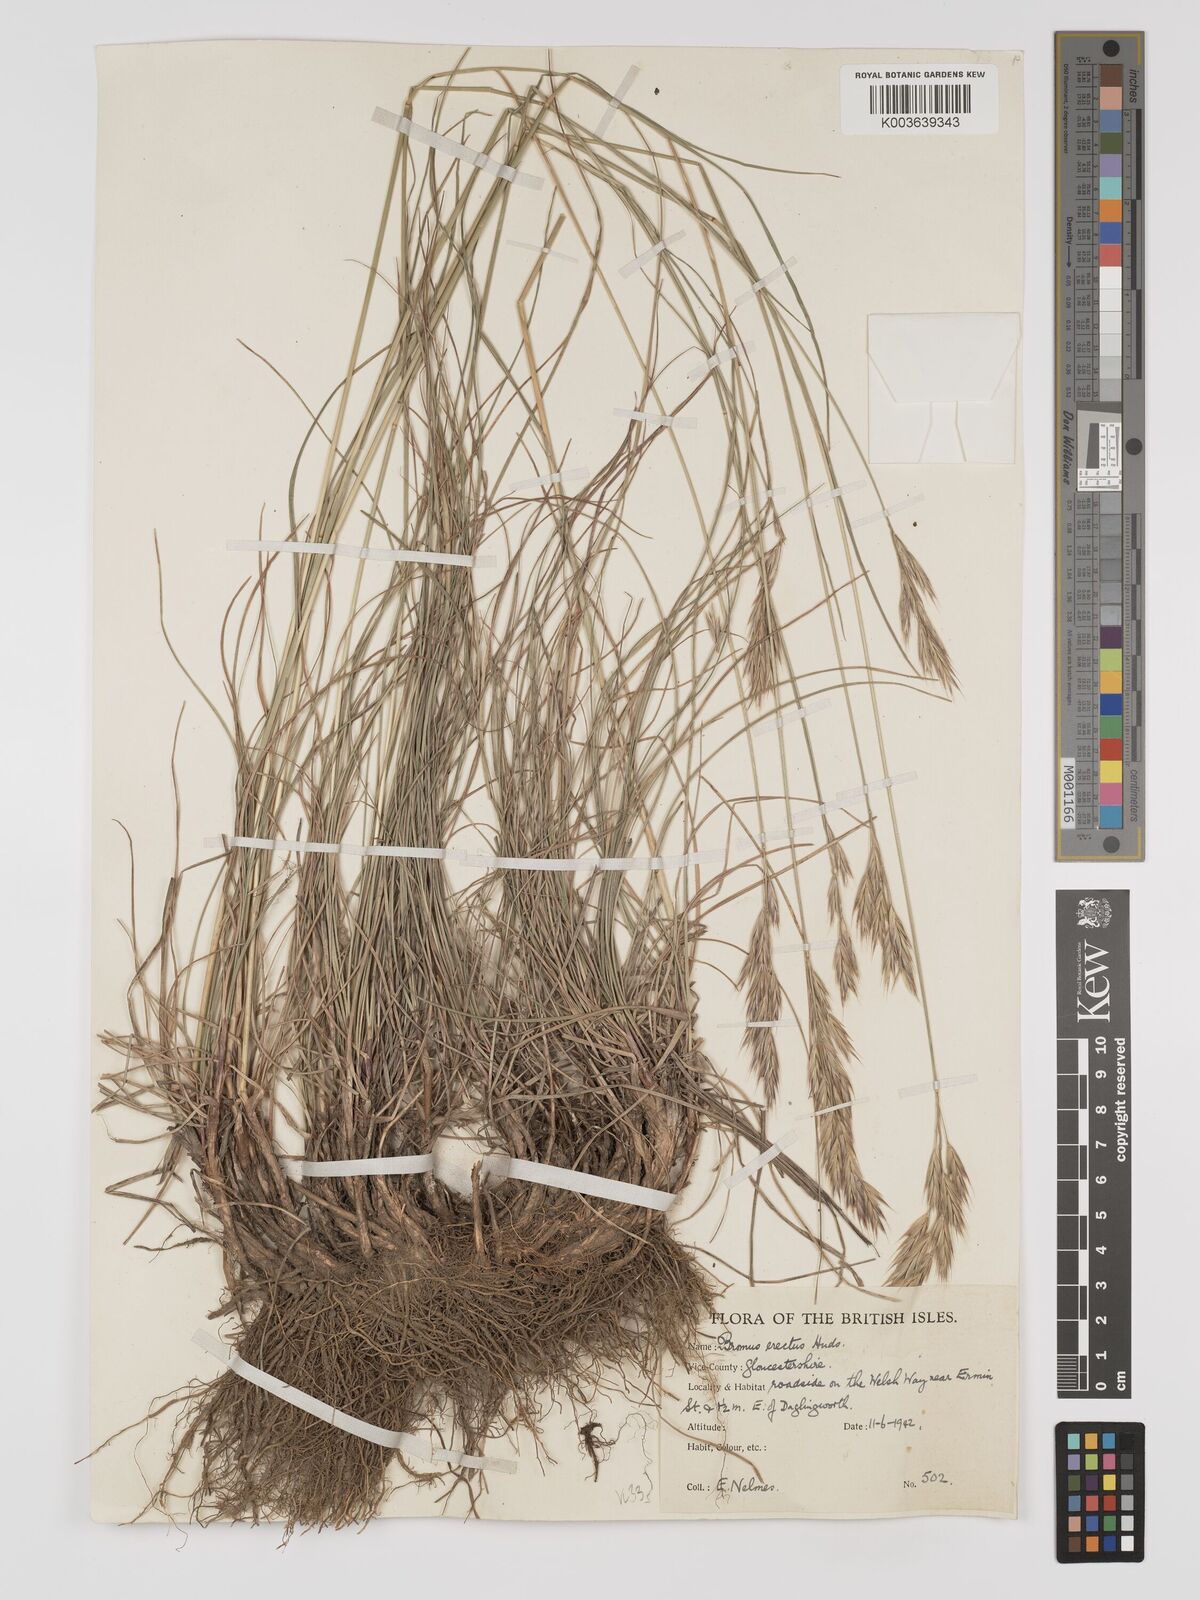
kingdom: Plantae
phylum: Tracheophyta
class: Liliopsida
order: Poales
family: Poaceae
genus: Bromus
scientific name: Bromus erectus
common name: Erect brome
